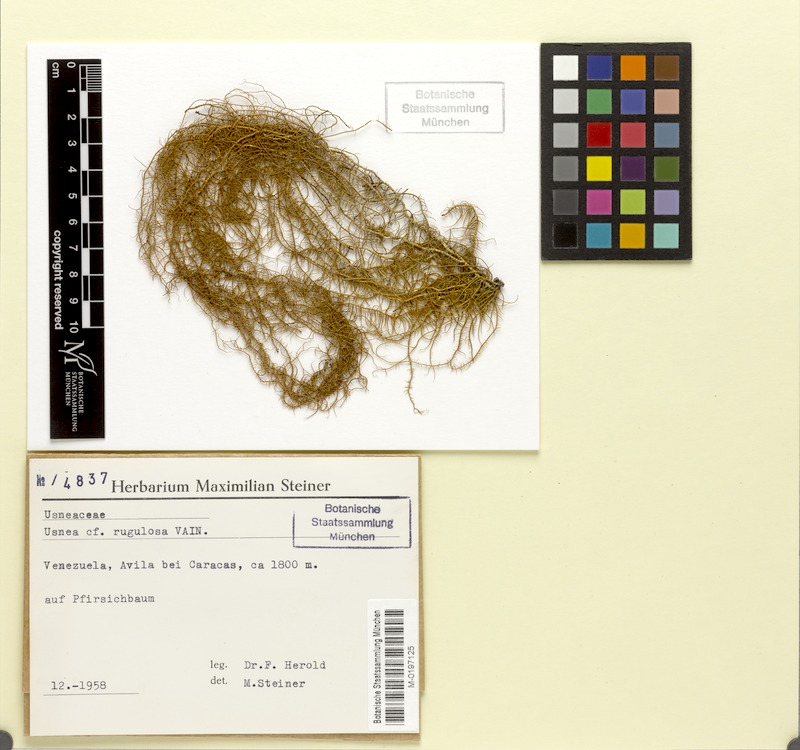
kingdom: Fungi
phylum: Ascomycota
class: Lecanoromycetes
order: Lecanorales
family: Parmeliaceae
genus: Usnea
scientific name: Usnea barbata
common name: Old man's beard lichen
